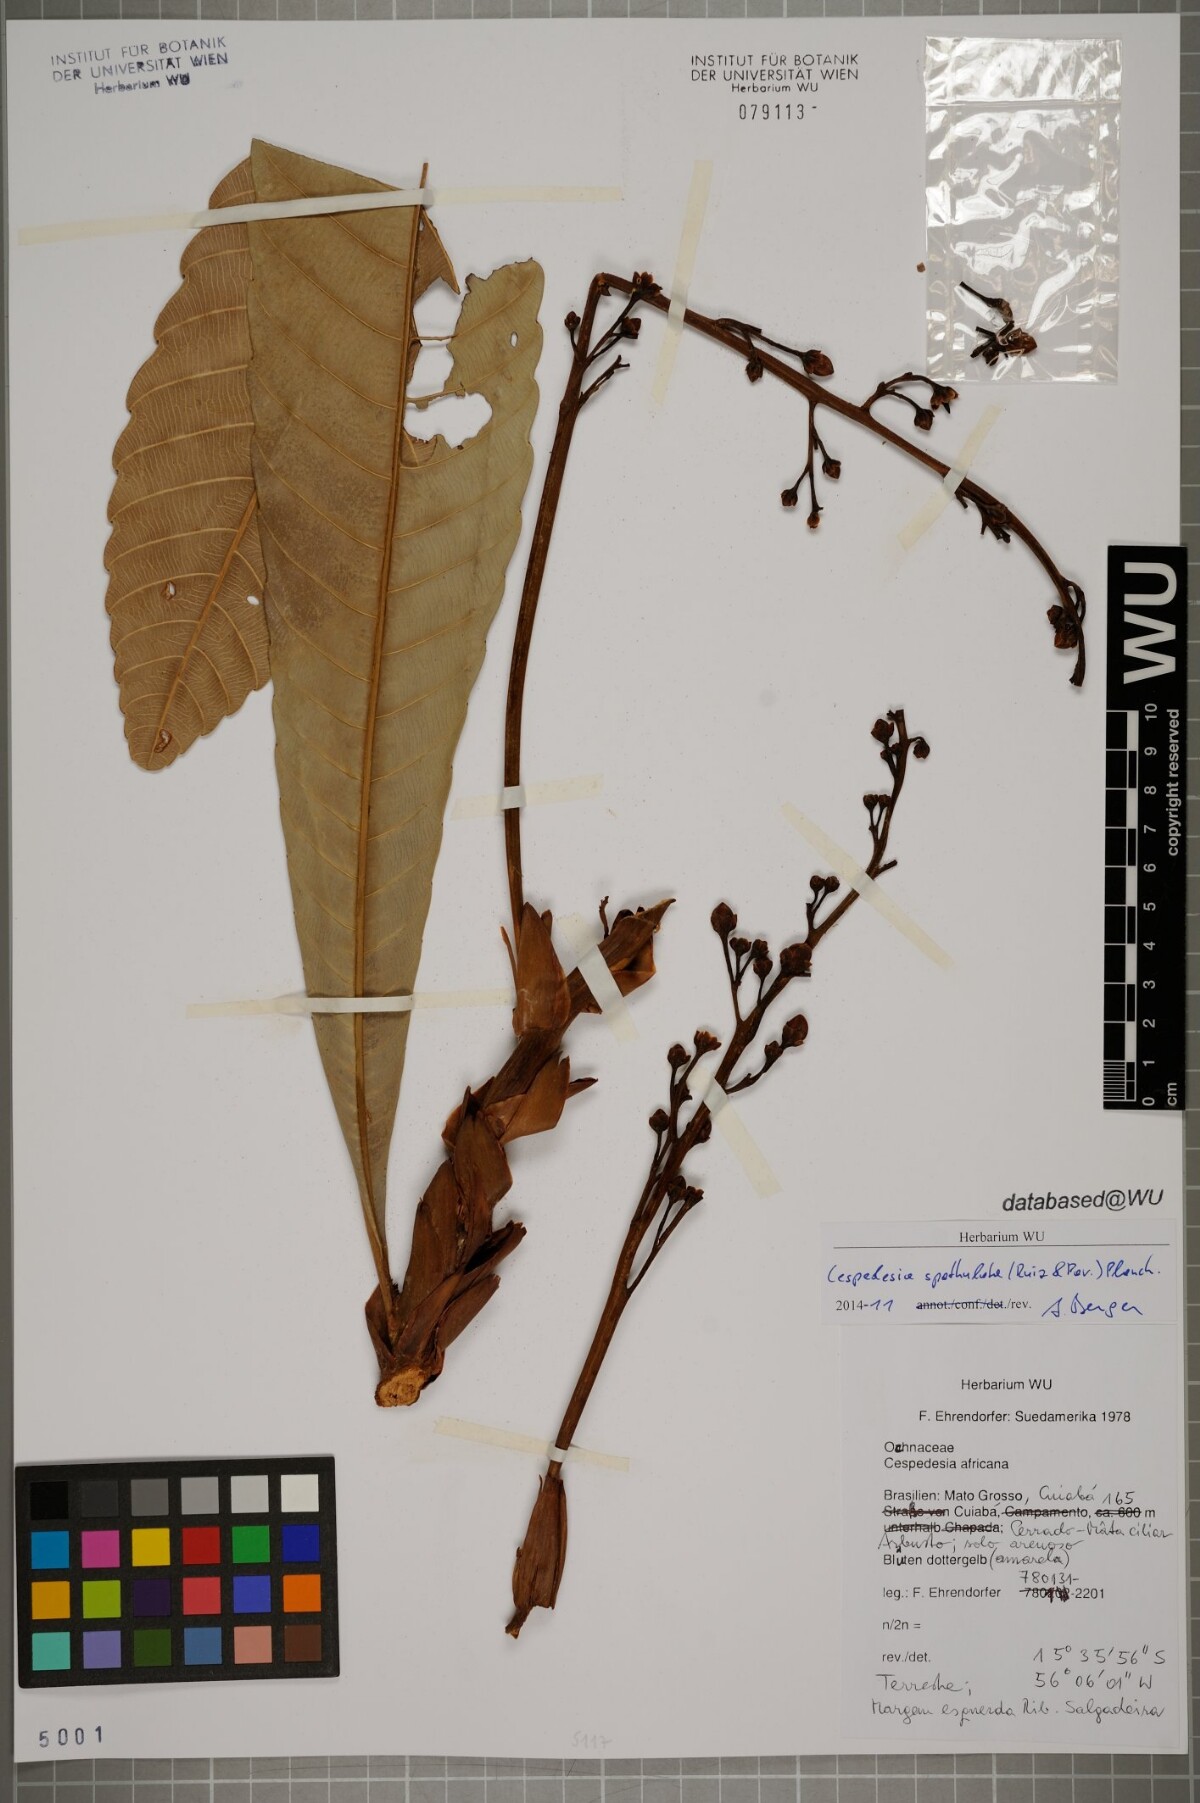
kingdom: Plantae
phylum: Tracheophyta
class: Magnoliopsida
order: Malpighiales
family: Ochnaceae
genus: Cespedesia
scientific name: Cespedesia spathulata
